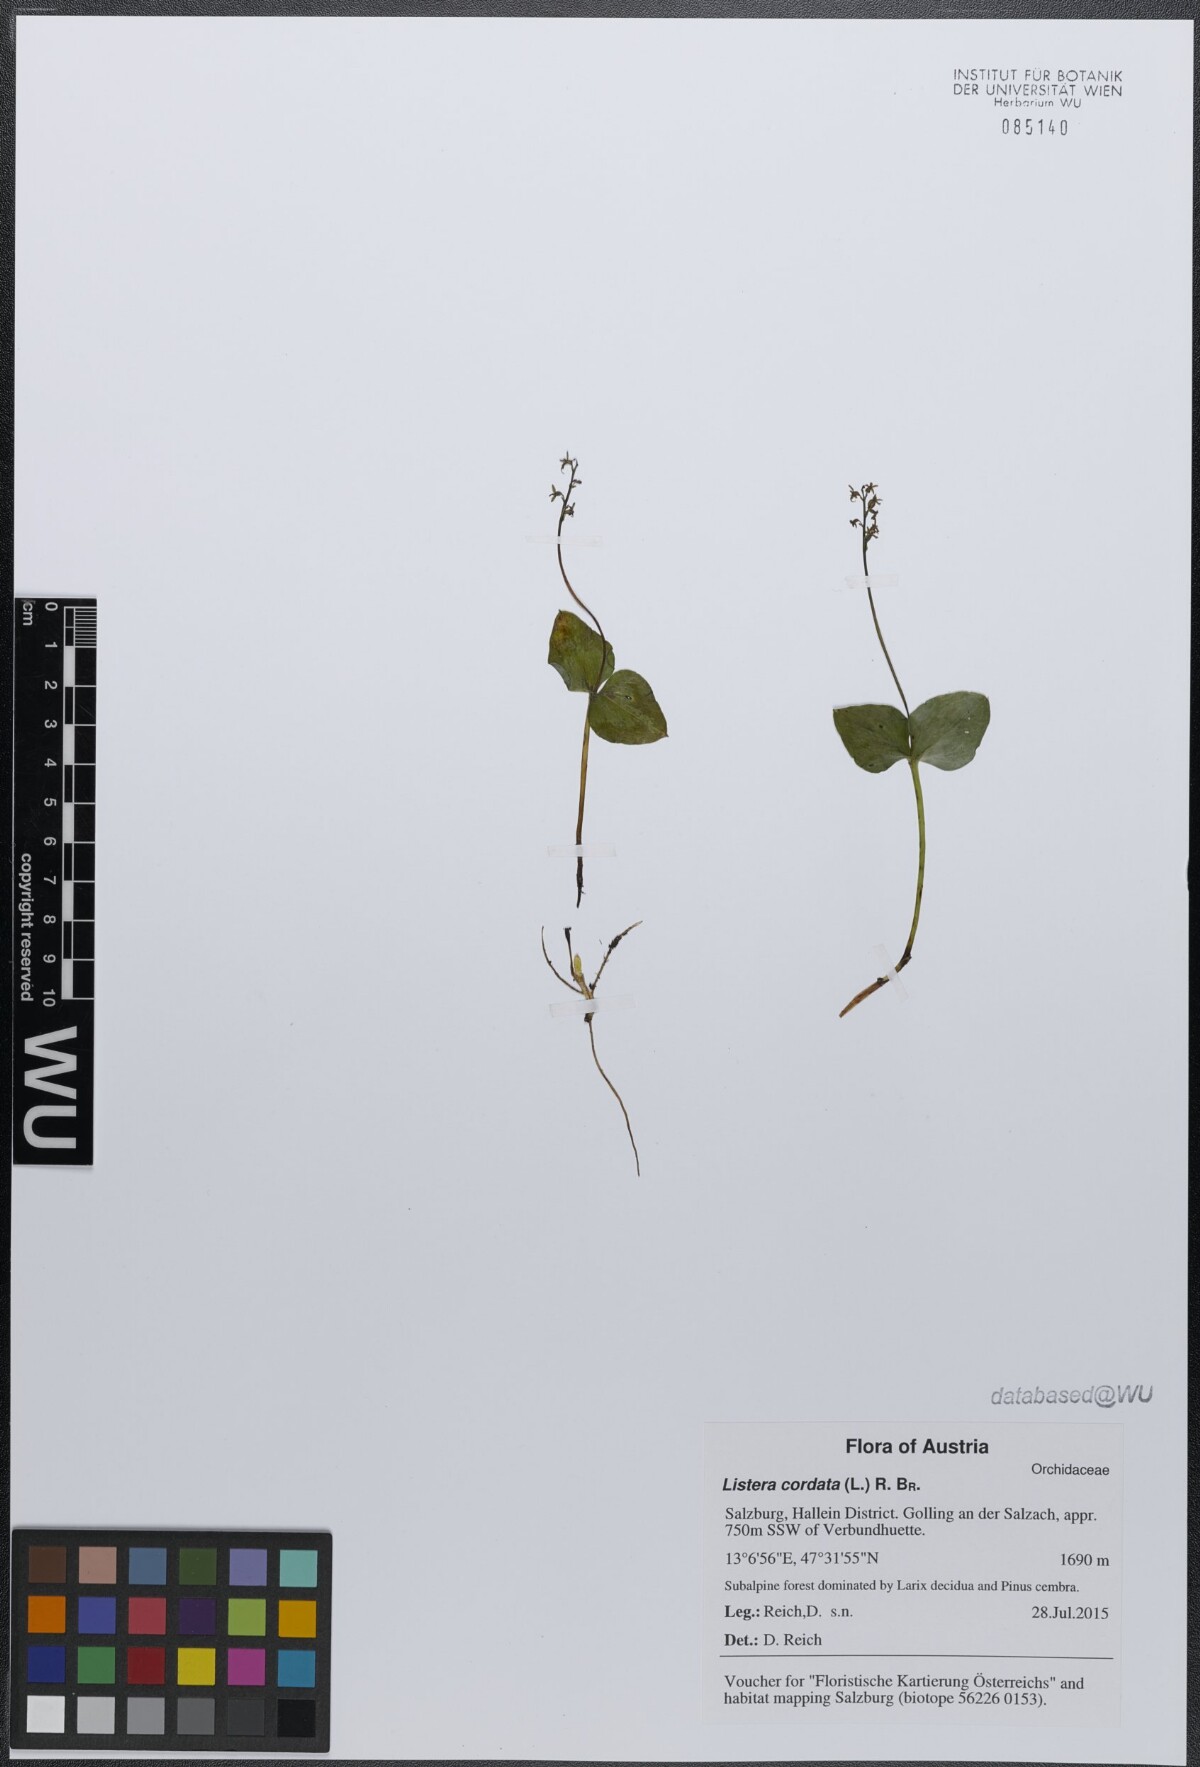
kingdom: Plantae
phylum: Tracheophyta
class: Liliopsida
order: Asparagales
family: Orchidaceae
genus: Neottia
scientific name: Neottia cordata
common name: Lesser twayblade
